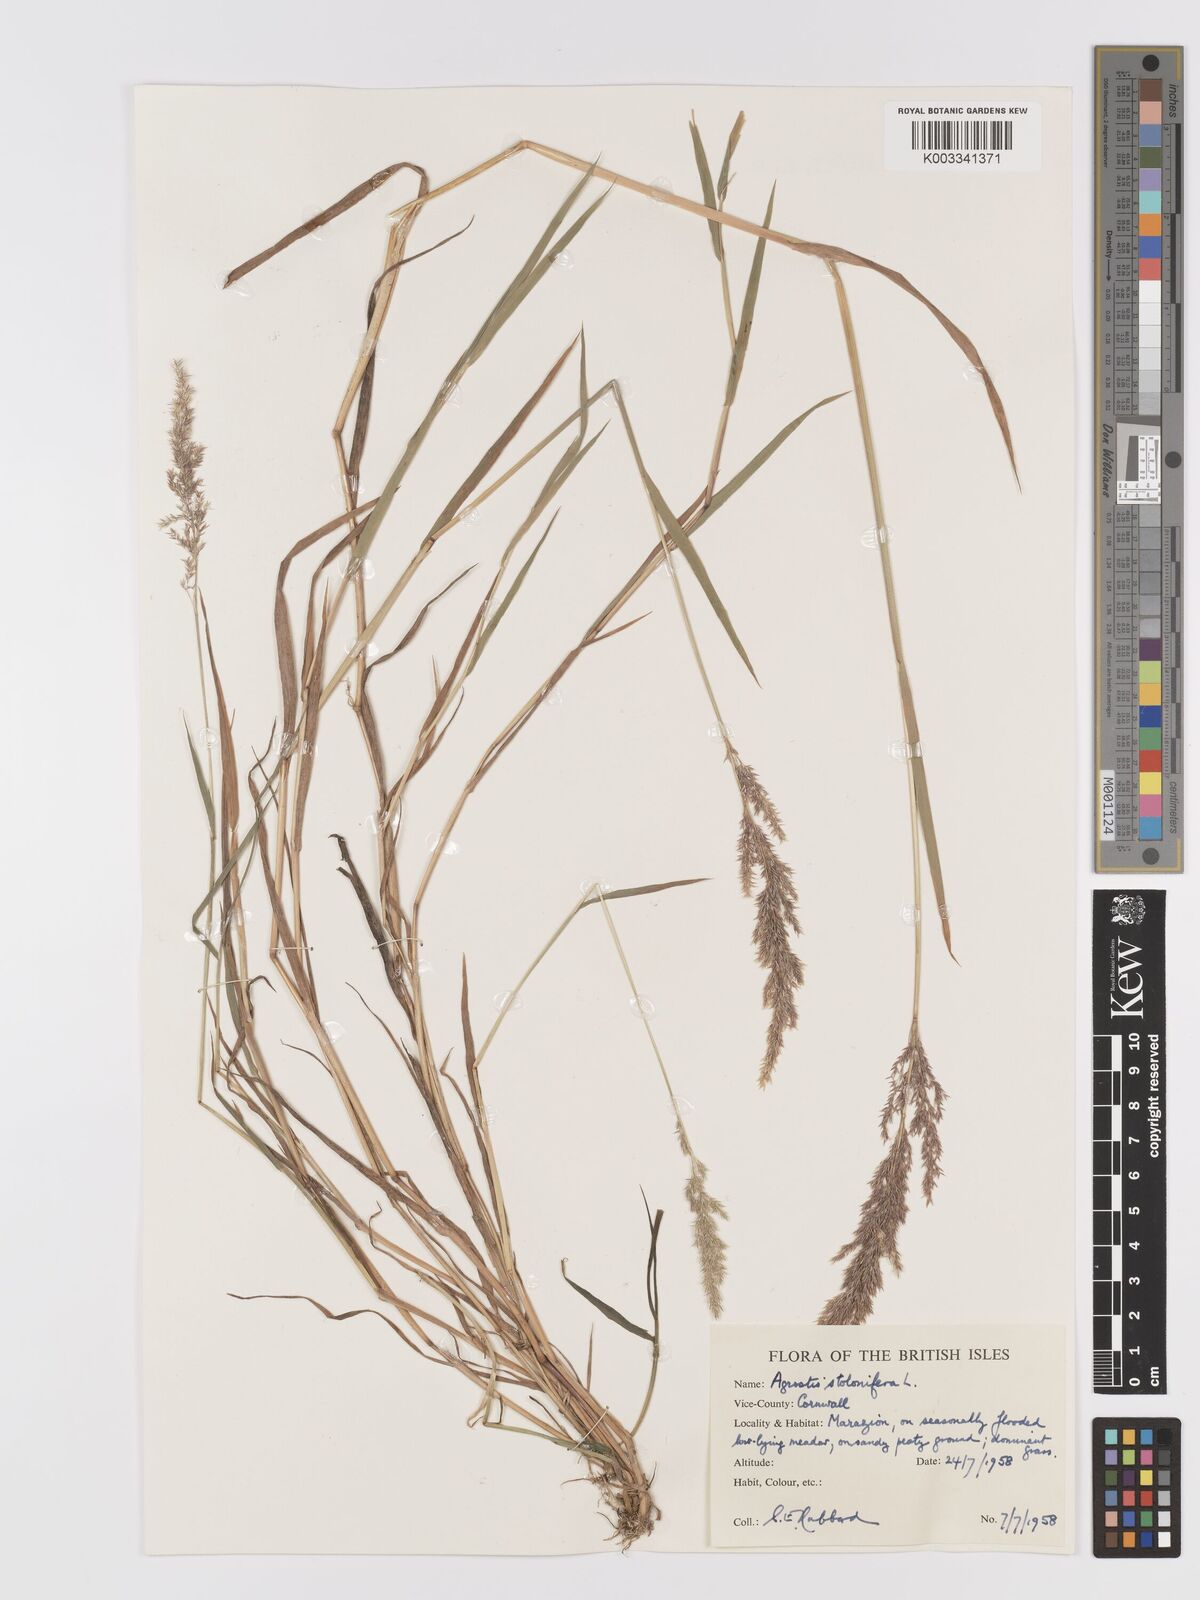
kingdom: Plantae
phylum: Tracheophyta
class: Liliopsida
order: Poales
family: Poaceae
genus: Agrostis
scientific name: Agrostis stolonifera
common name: Creeping bentgrass
